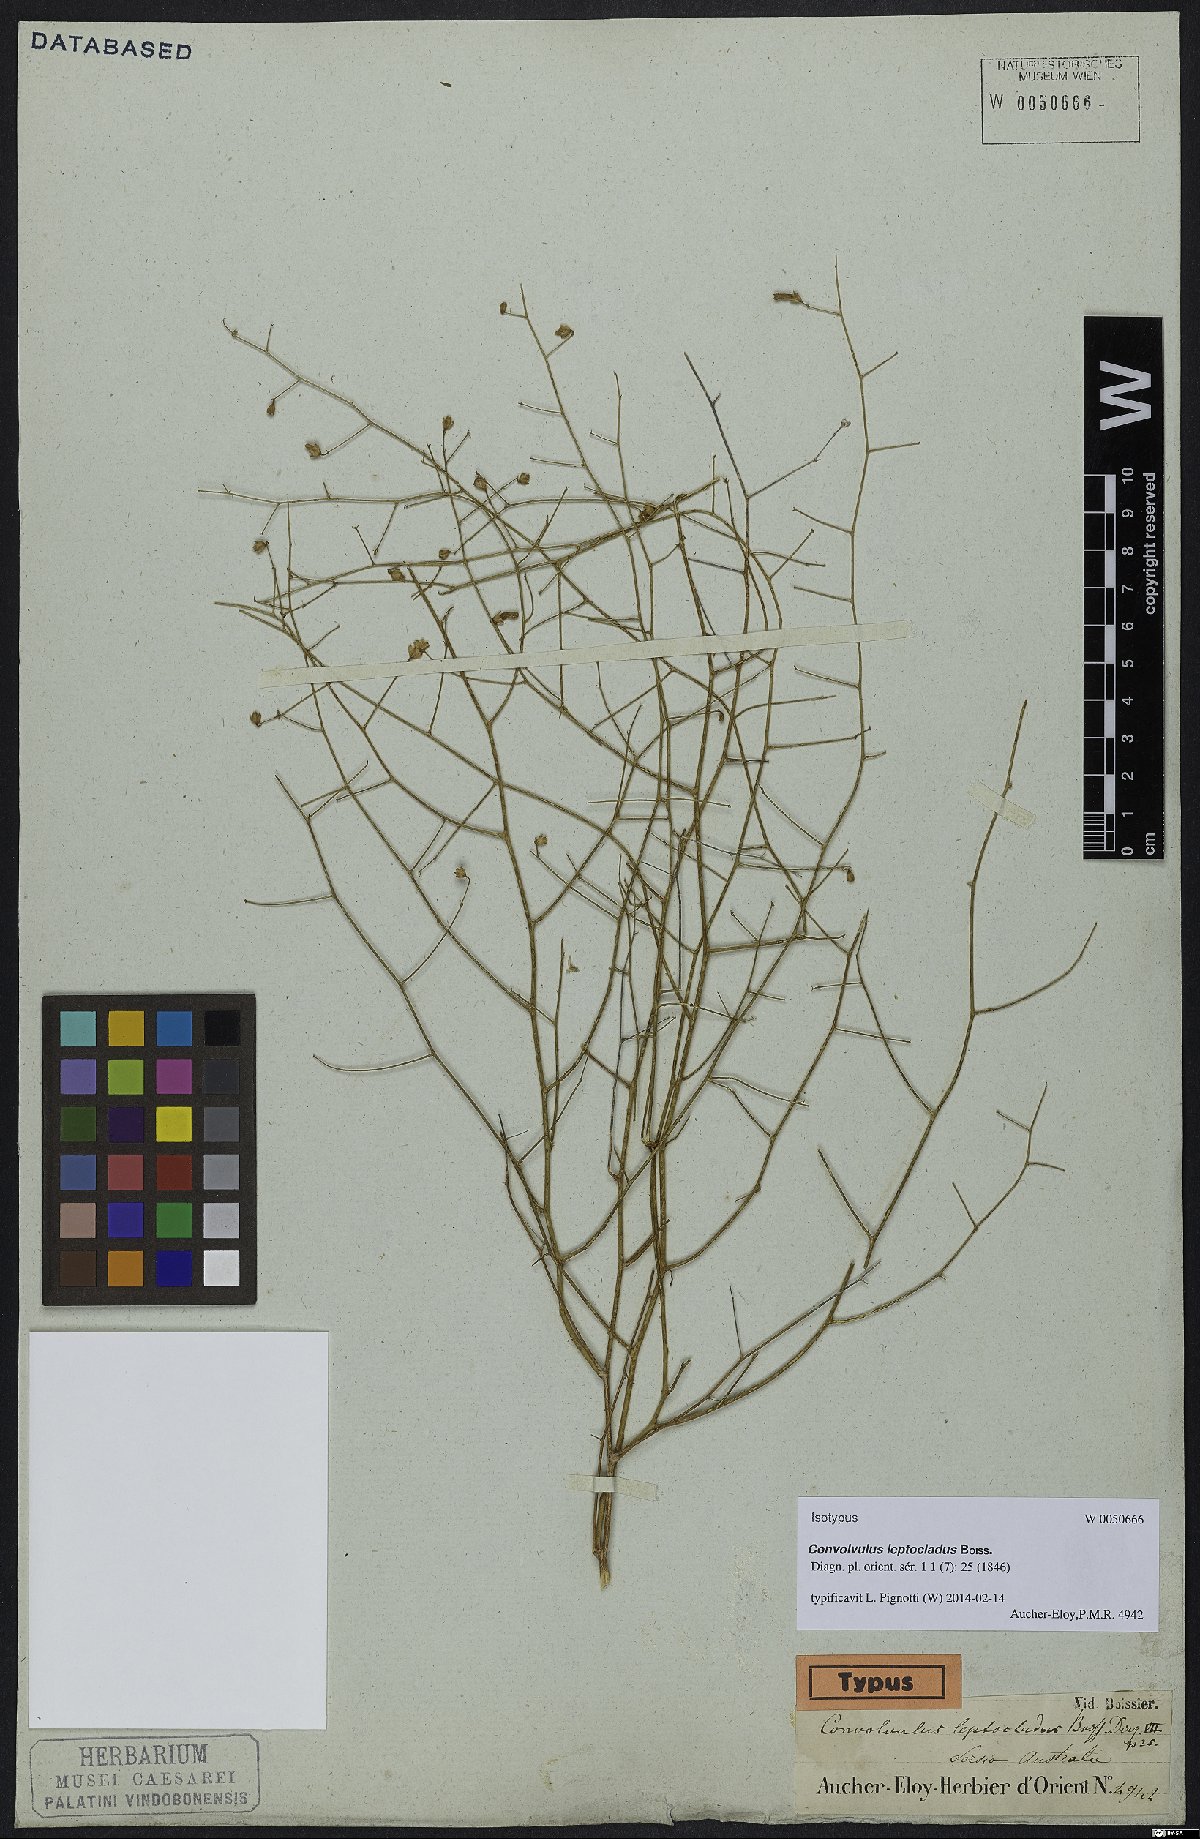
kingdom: Plantae
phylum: Tracheophyta
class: Magnoliopsida
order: Solanales
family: Convolvulaceae
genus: Convolvulus
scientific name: Convolvulus leptocladus
